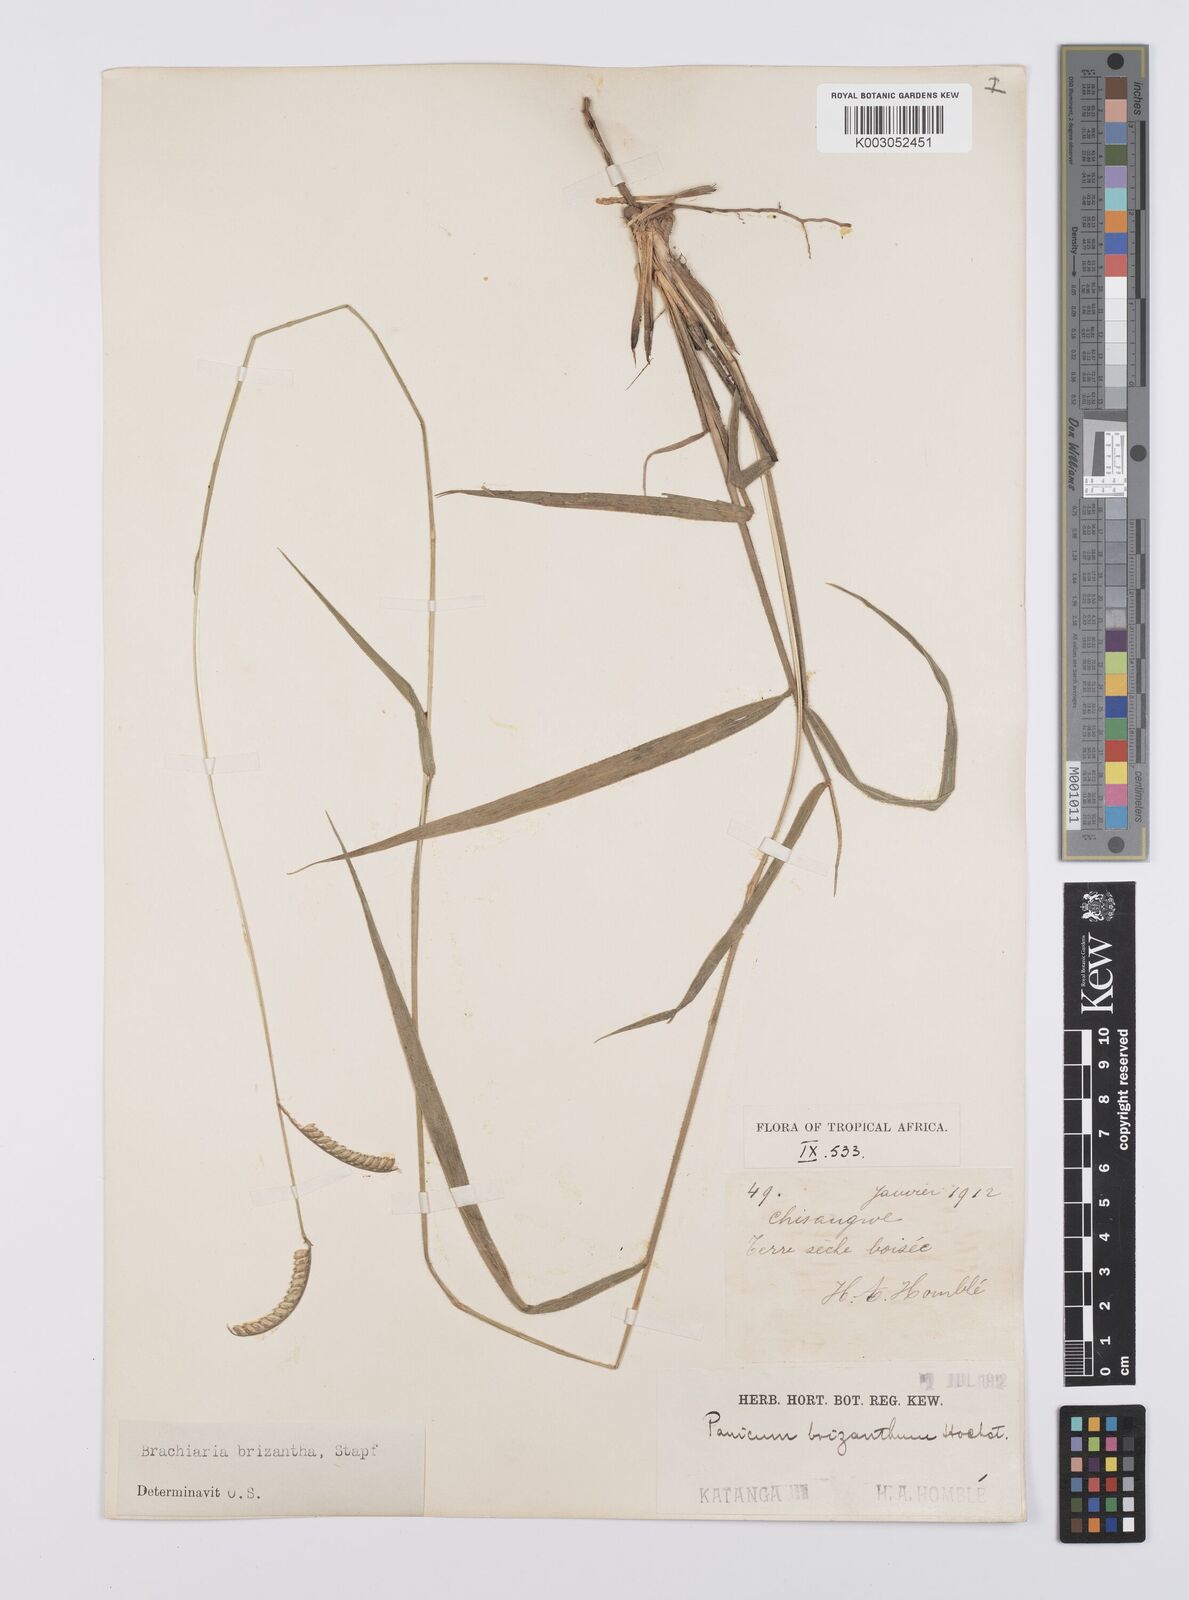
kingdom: Plantae
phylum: Tracheophyta
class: Liliopsida
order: Poales
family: Poaceae
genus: Urochloa
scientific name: Urochloa brizantha
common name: Palisade signalgrass
